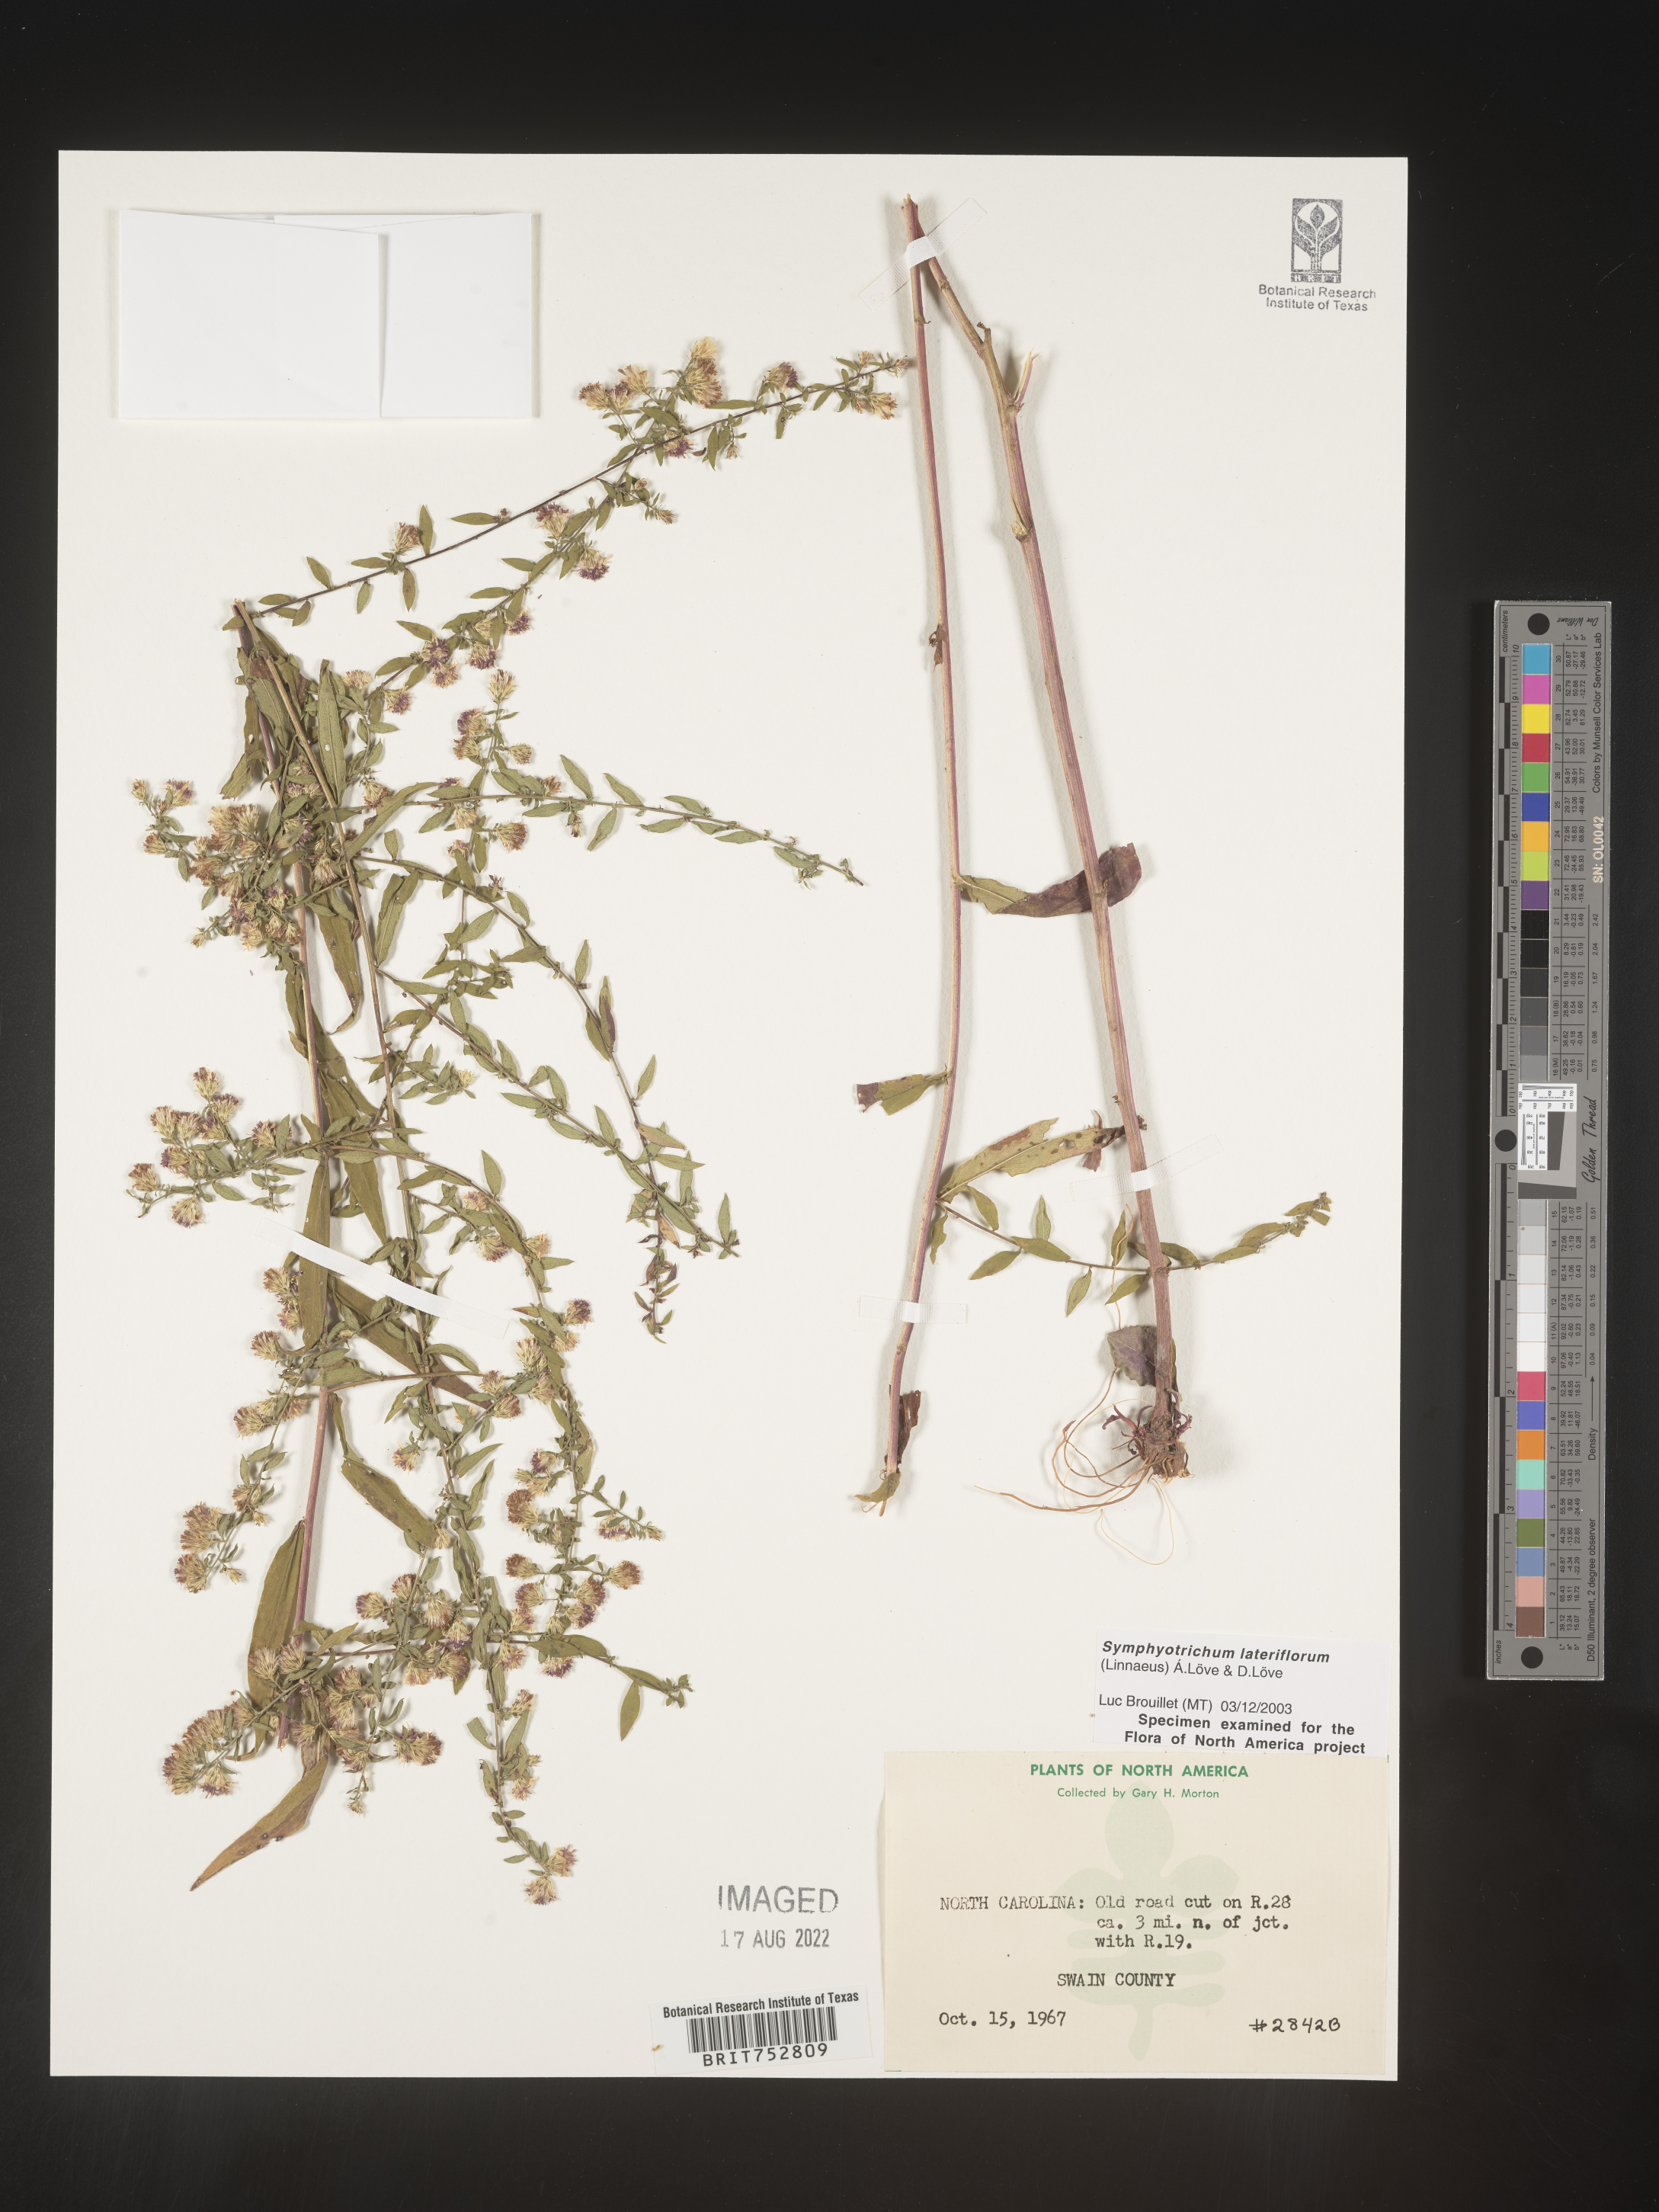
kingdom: Plantae
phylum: Tracheophyta
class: Magnoliopsida
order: Asterales
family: Asteraceae
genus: Symphyotrichum
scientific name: Symphyotrichum lateriflorum
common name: Calico aster
